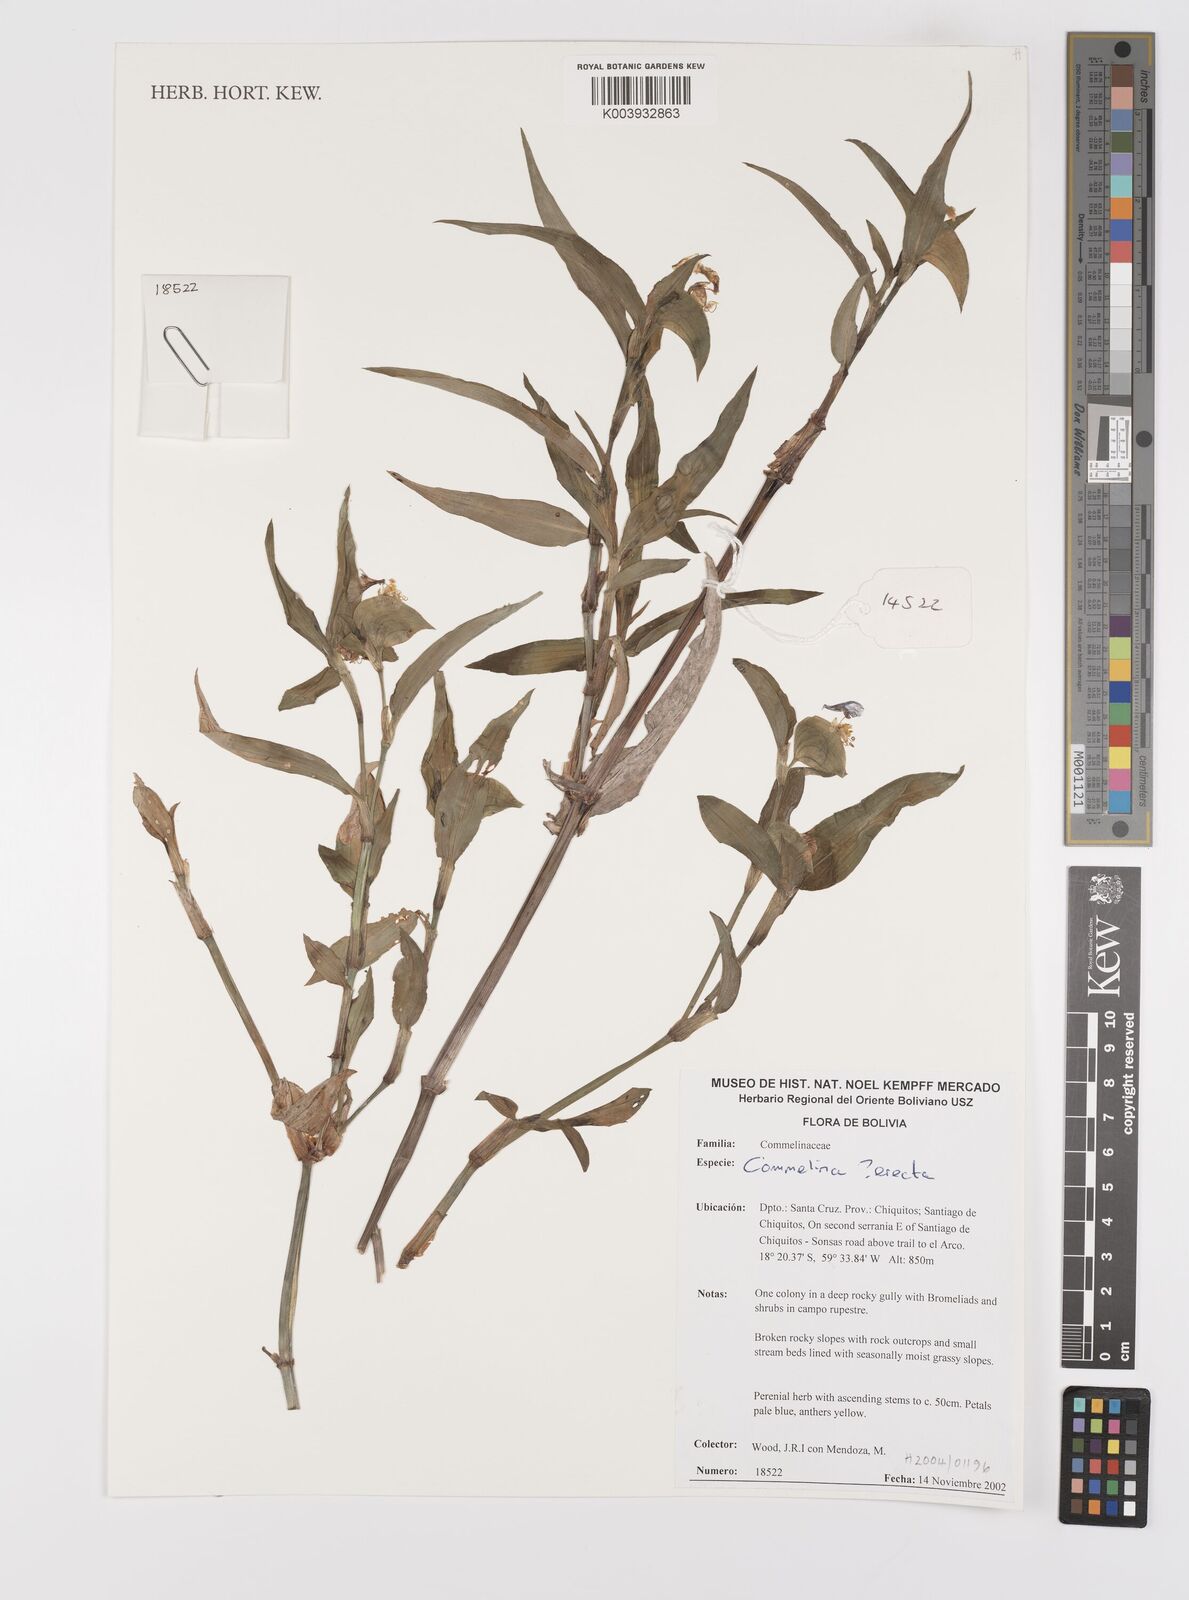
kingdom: Plantae
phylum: Tracheophyta
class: Liliopsida
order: Commelinales
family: Commelinaceae
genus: Commelina
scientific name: Commelina
